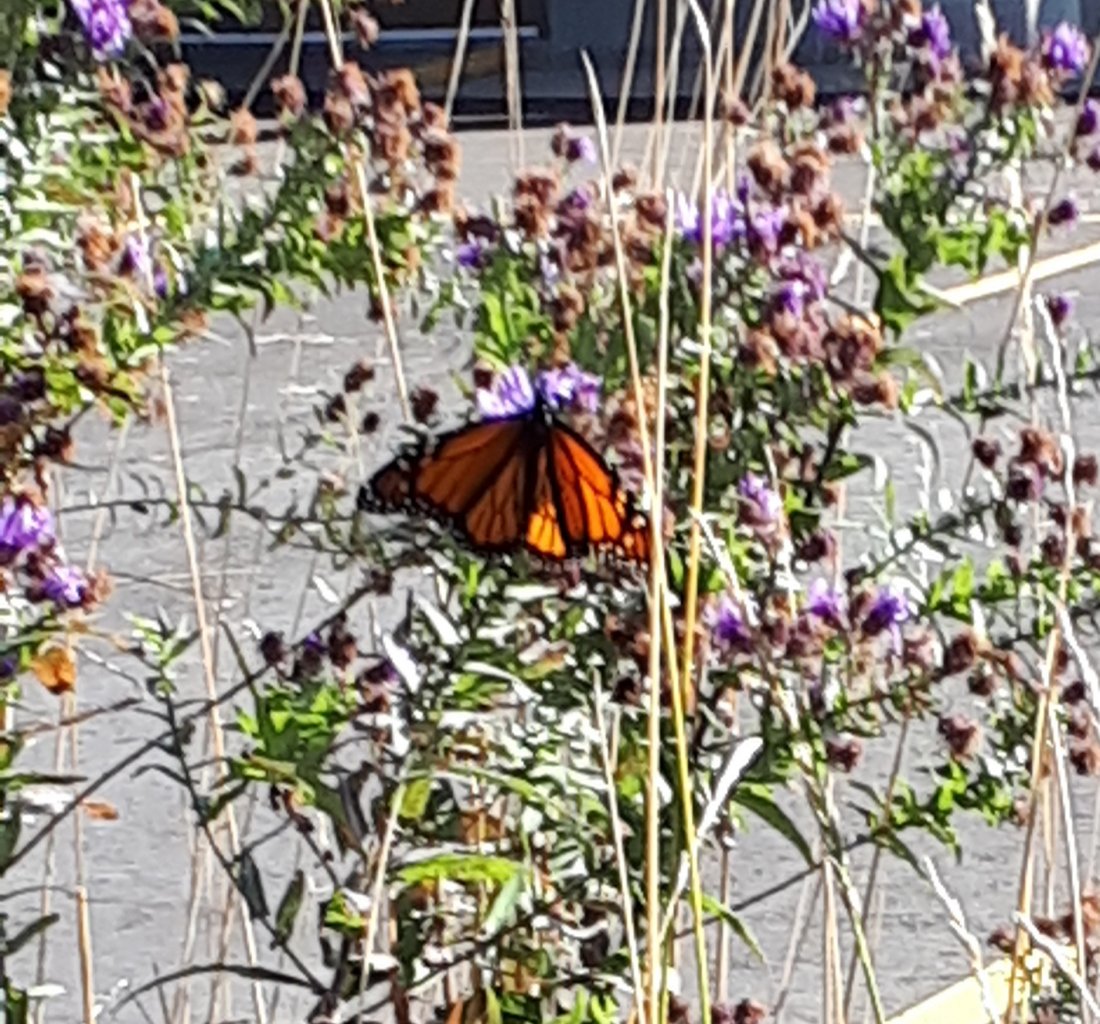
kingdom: Animalia
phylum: Arthropoda
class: Insecta
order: Lepidoptera
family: Nymphalidae
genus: Danaus
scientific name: Danaus plexippus
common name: Monarch
